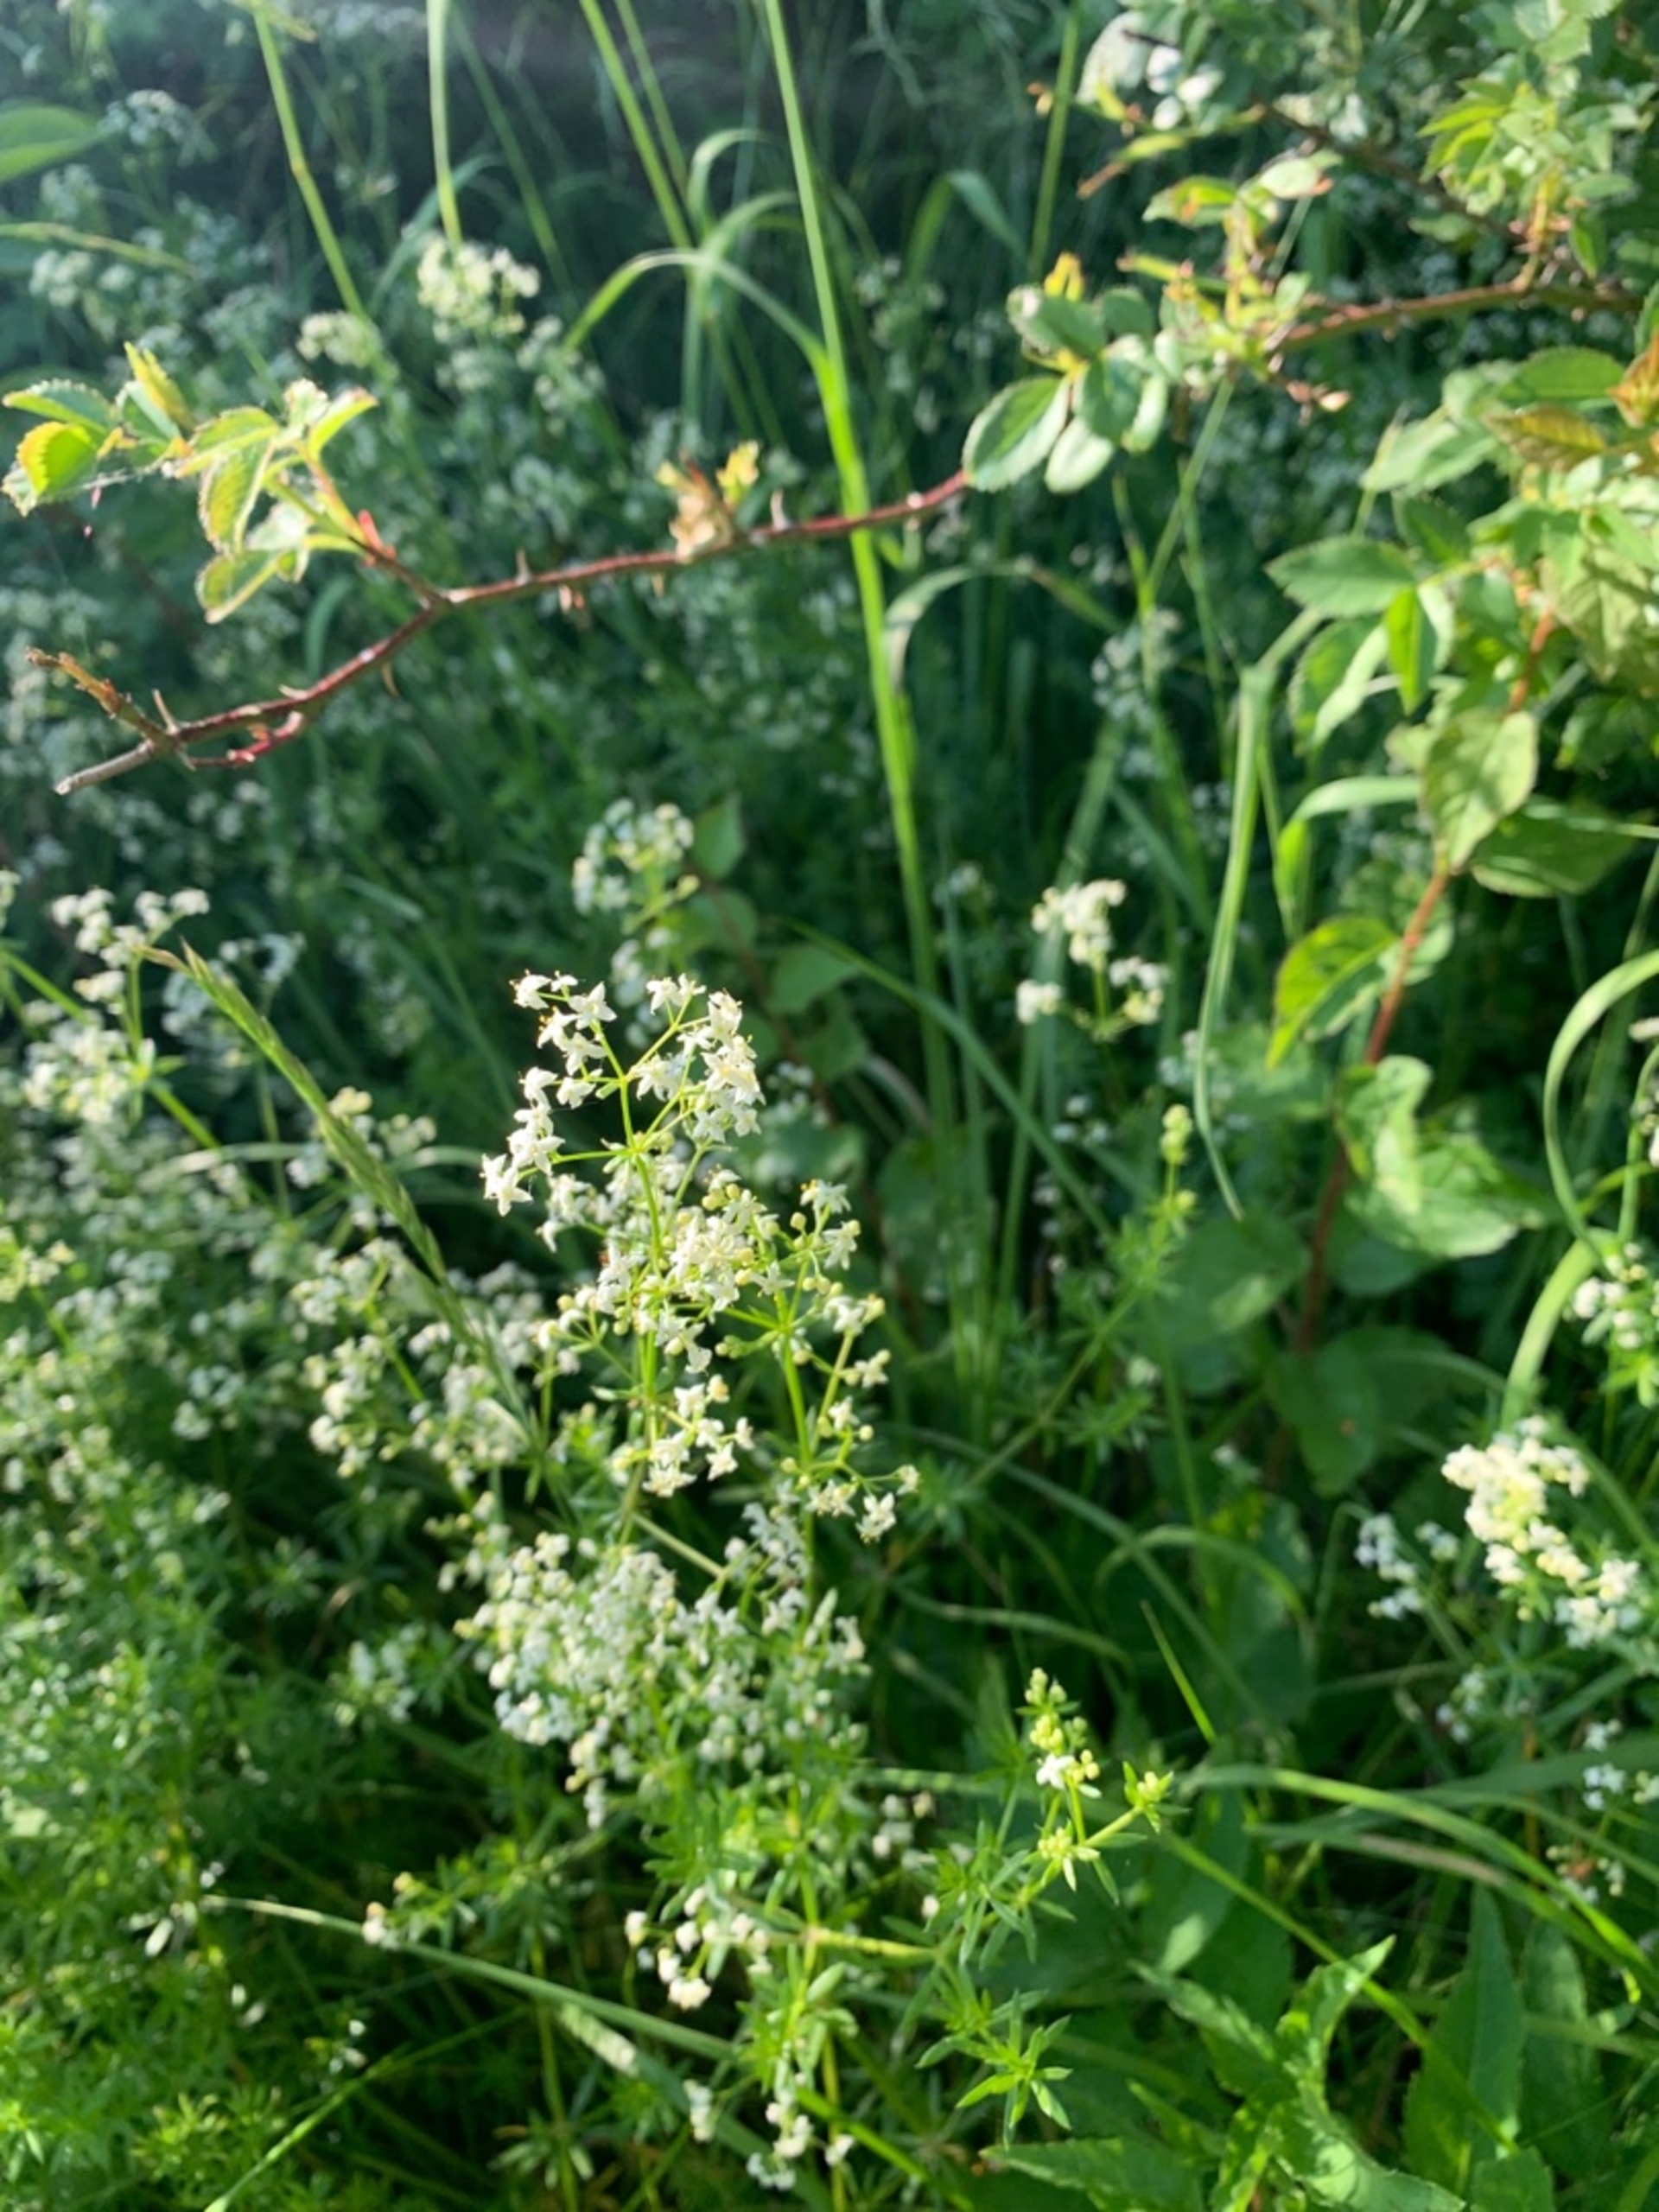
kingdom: Plantae
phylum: Tracheophyta
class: Magnoliopsida
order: Gentianales
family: Rubiaceae
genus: Galium
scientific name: Galium mollugo
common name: Hvid snerre
